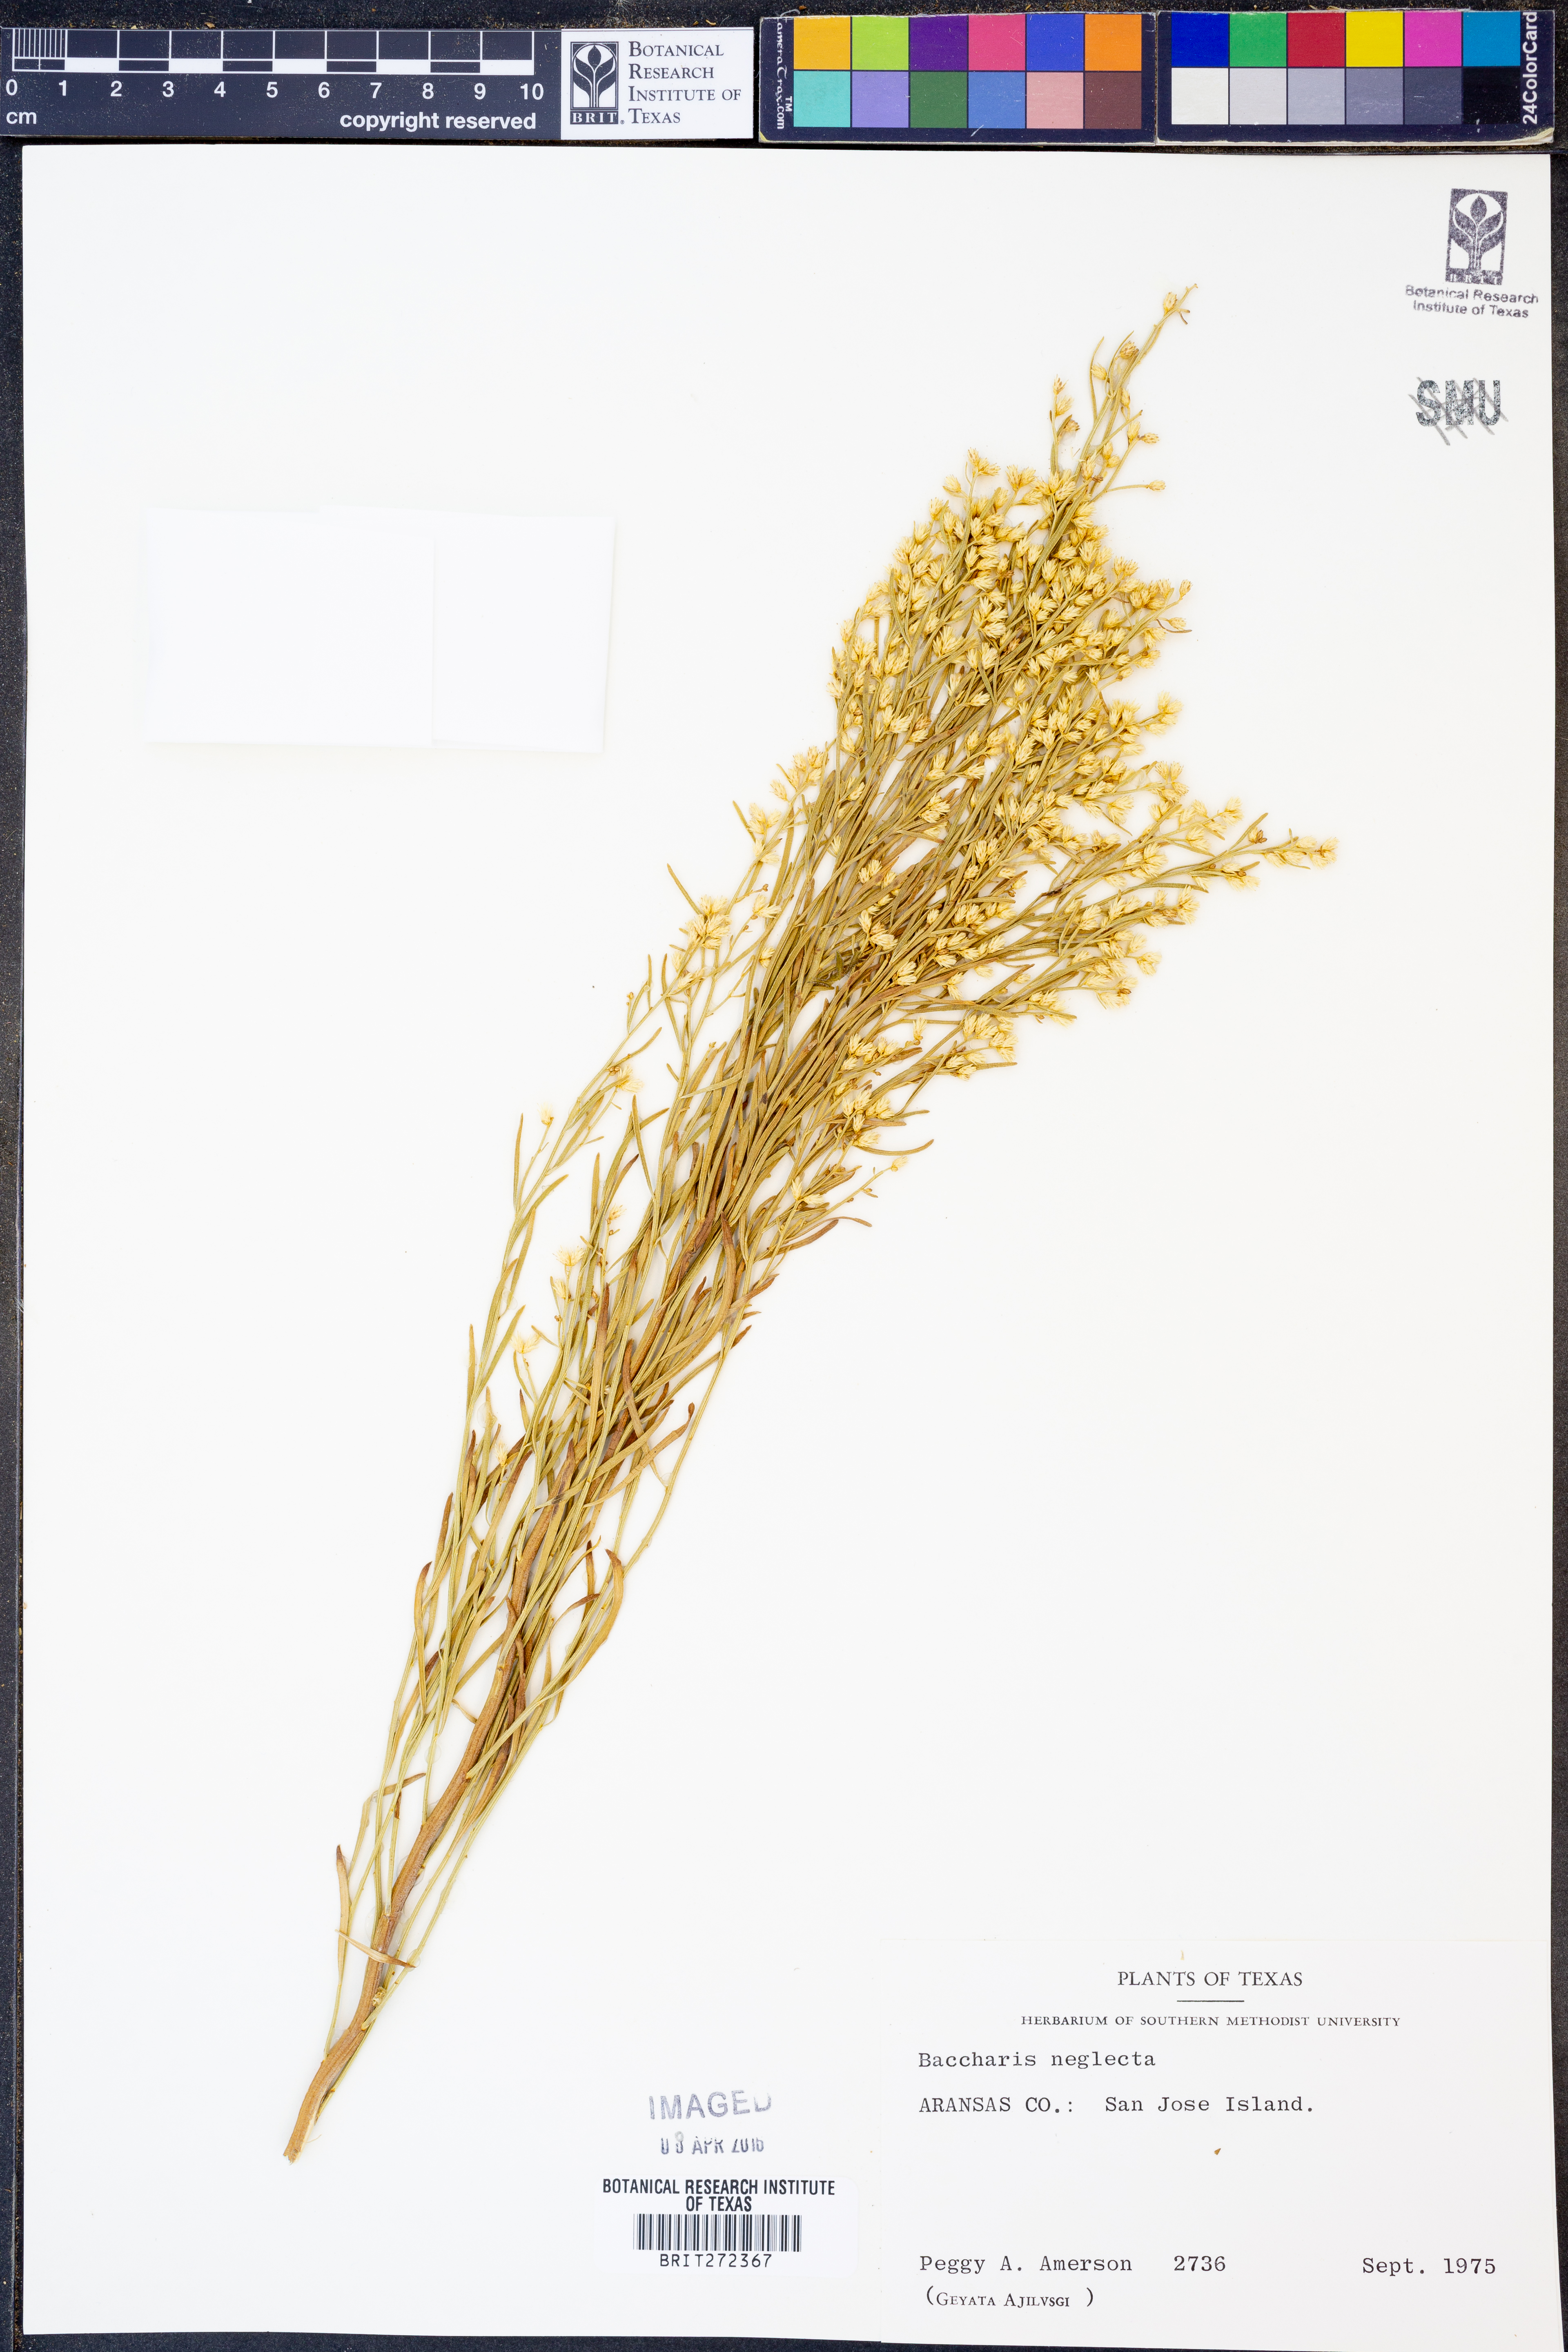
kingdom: Plantae
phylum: Tracheophyta
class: Magnoliopsida
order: Asterales
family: Asteraceae
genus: Baccharis
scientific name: Baccharis neglecta
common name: Roosevelt-weed
